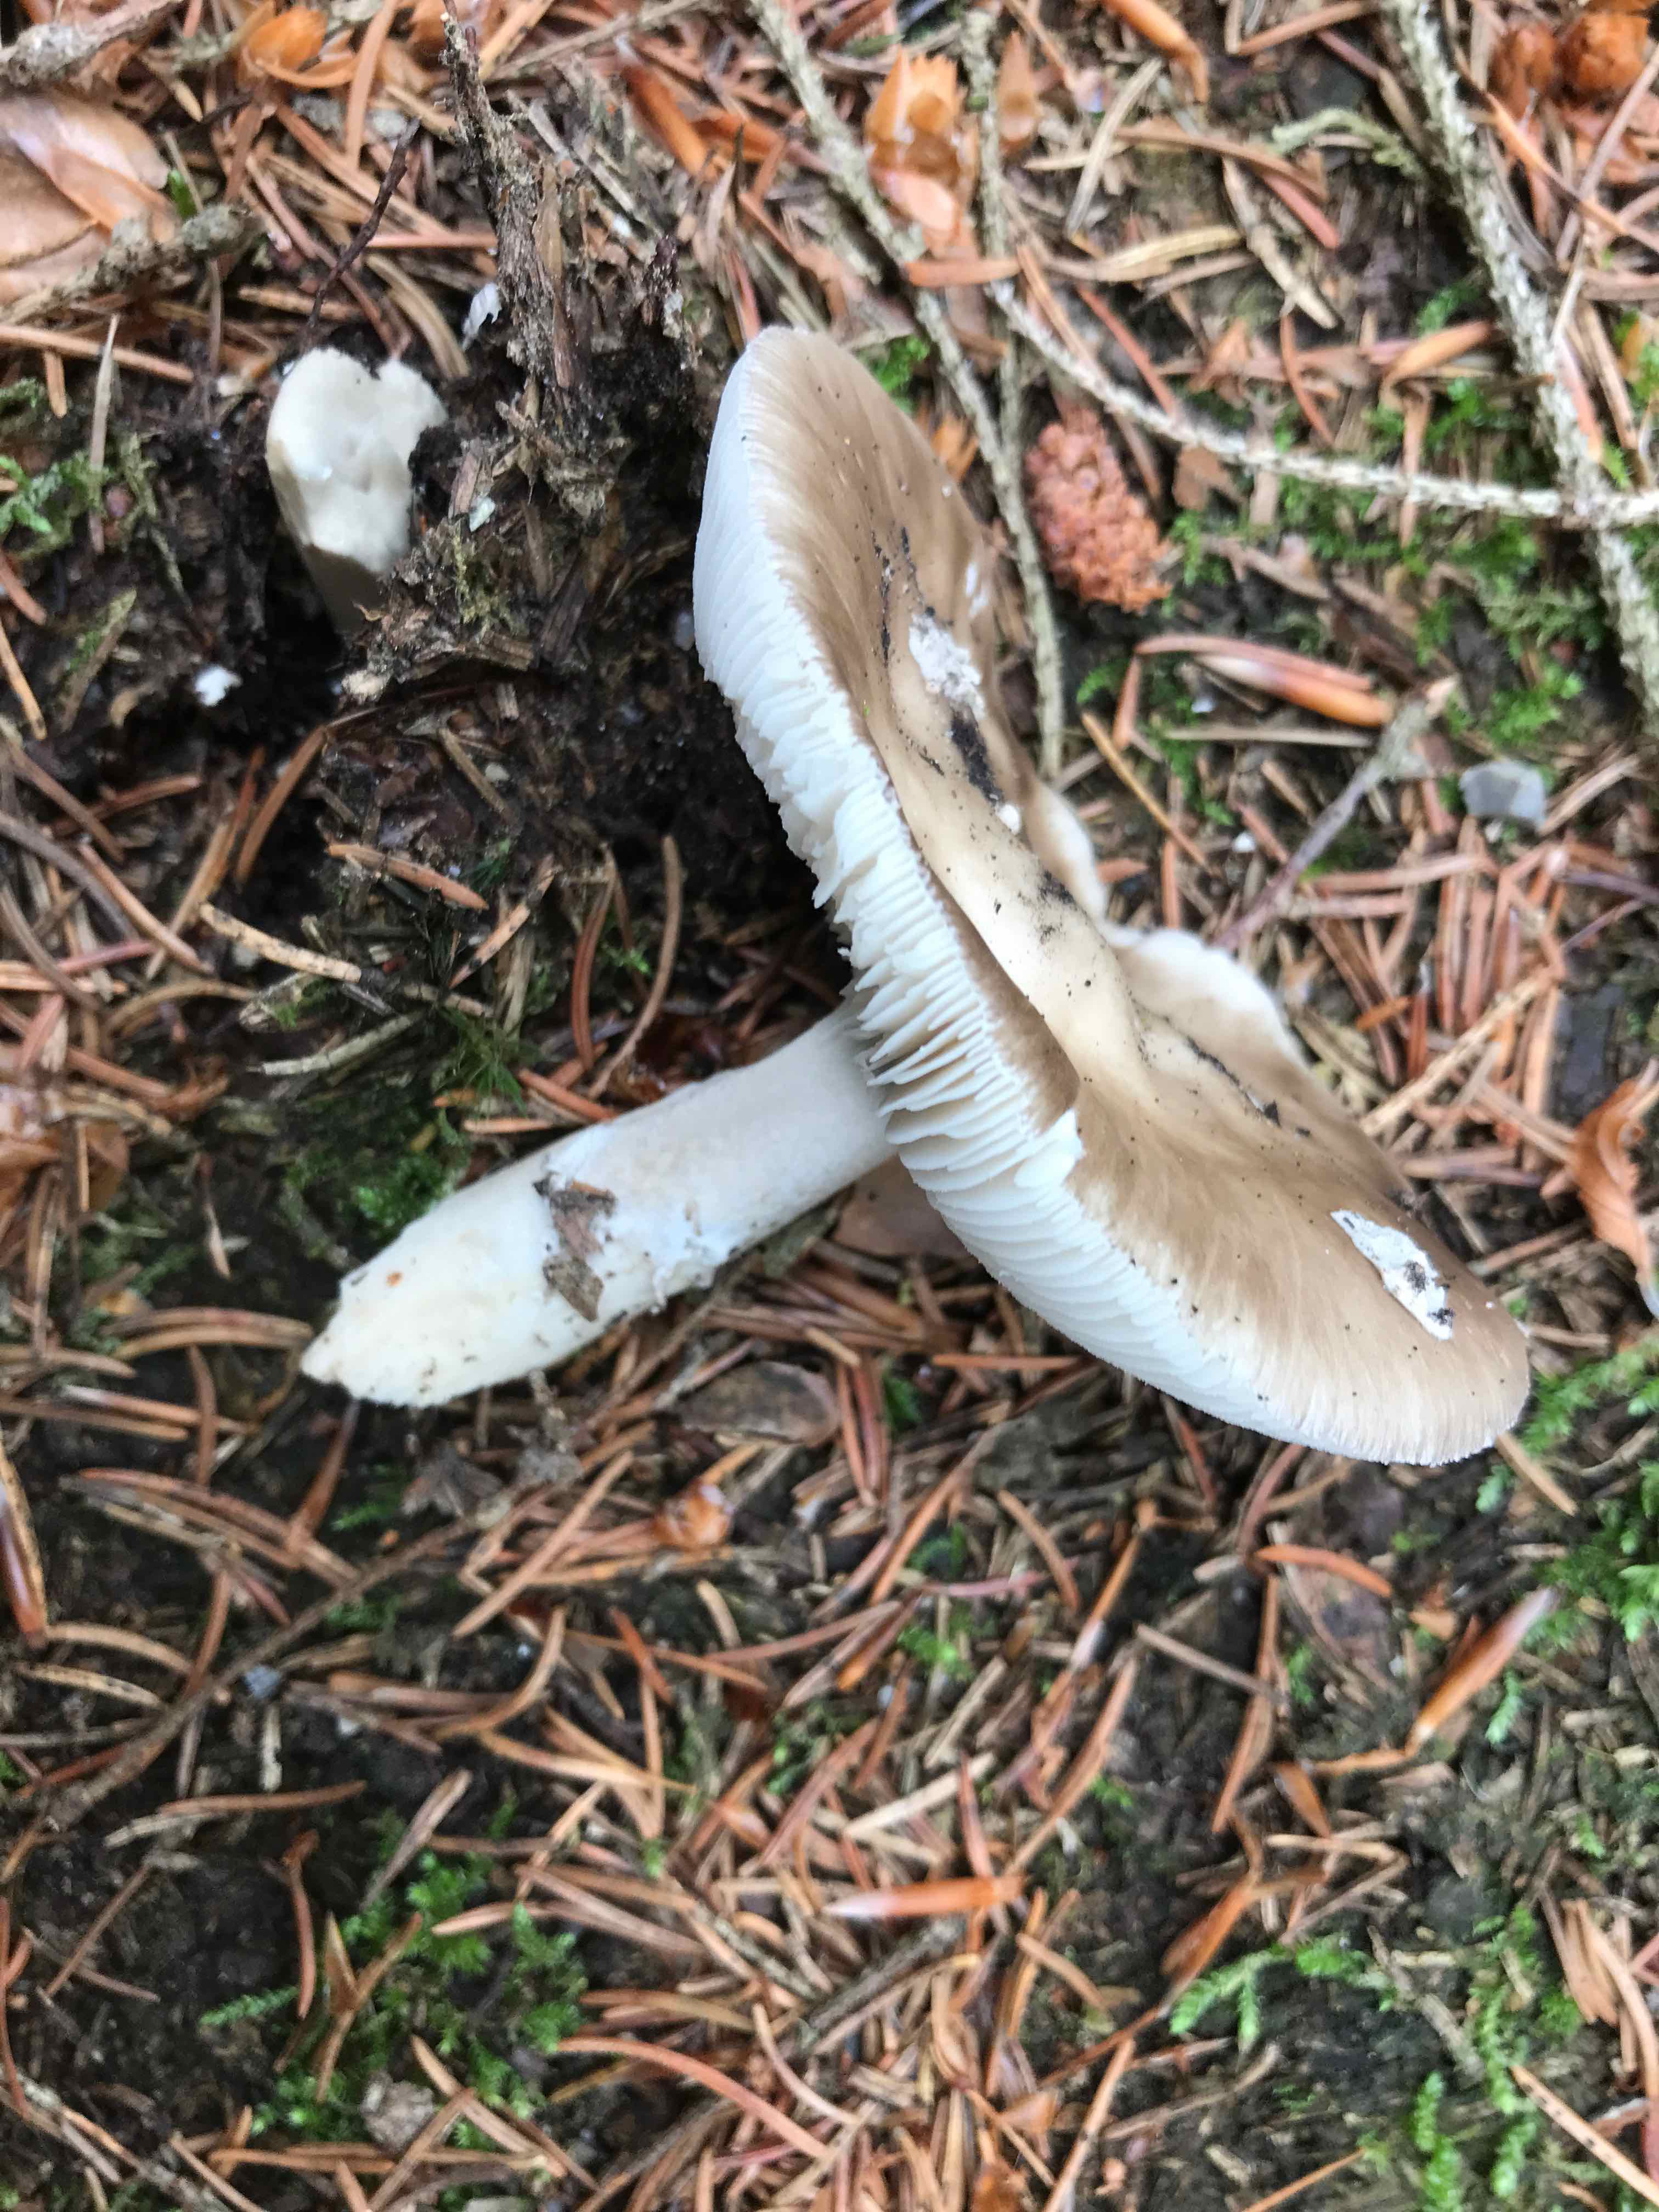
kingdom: Fungi
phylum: Basidiomycota
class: Agaricomycetes
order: Agaricales
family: Amanitaceae
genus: Amanita
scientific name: Amanita
